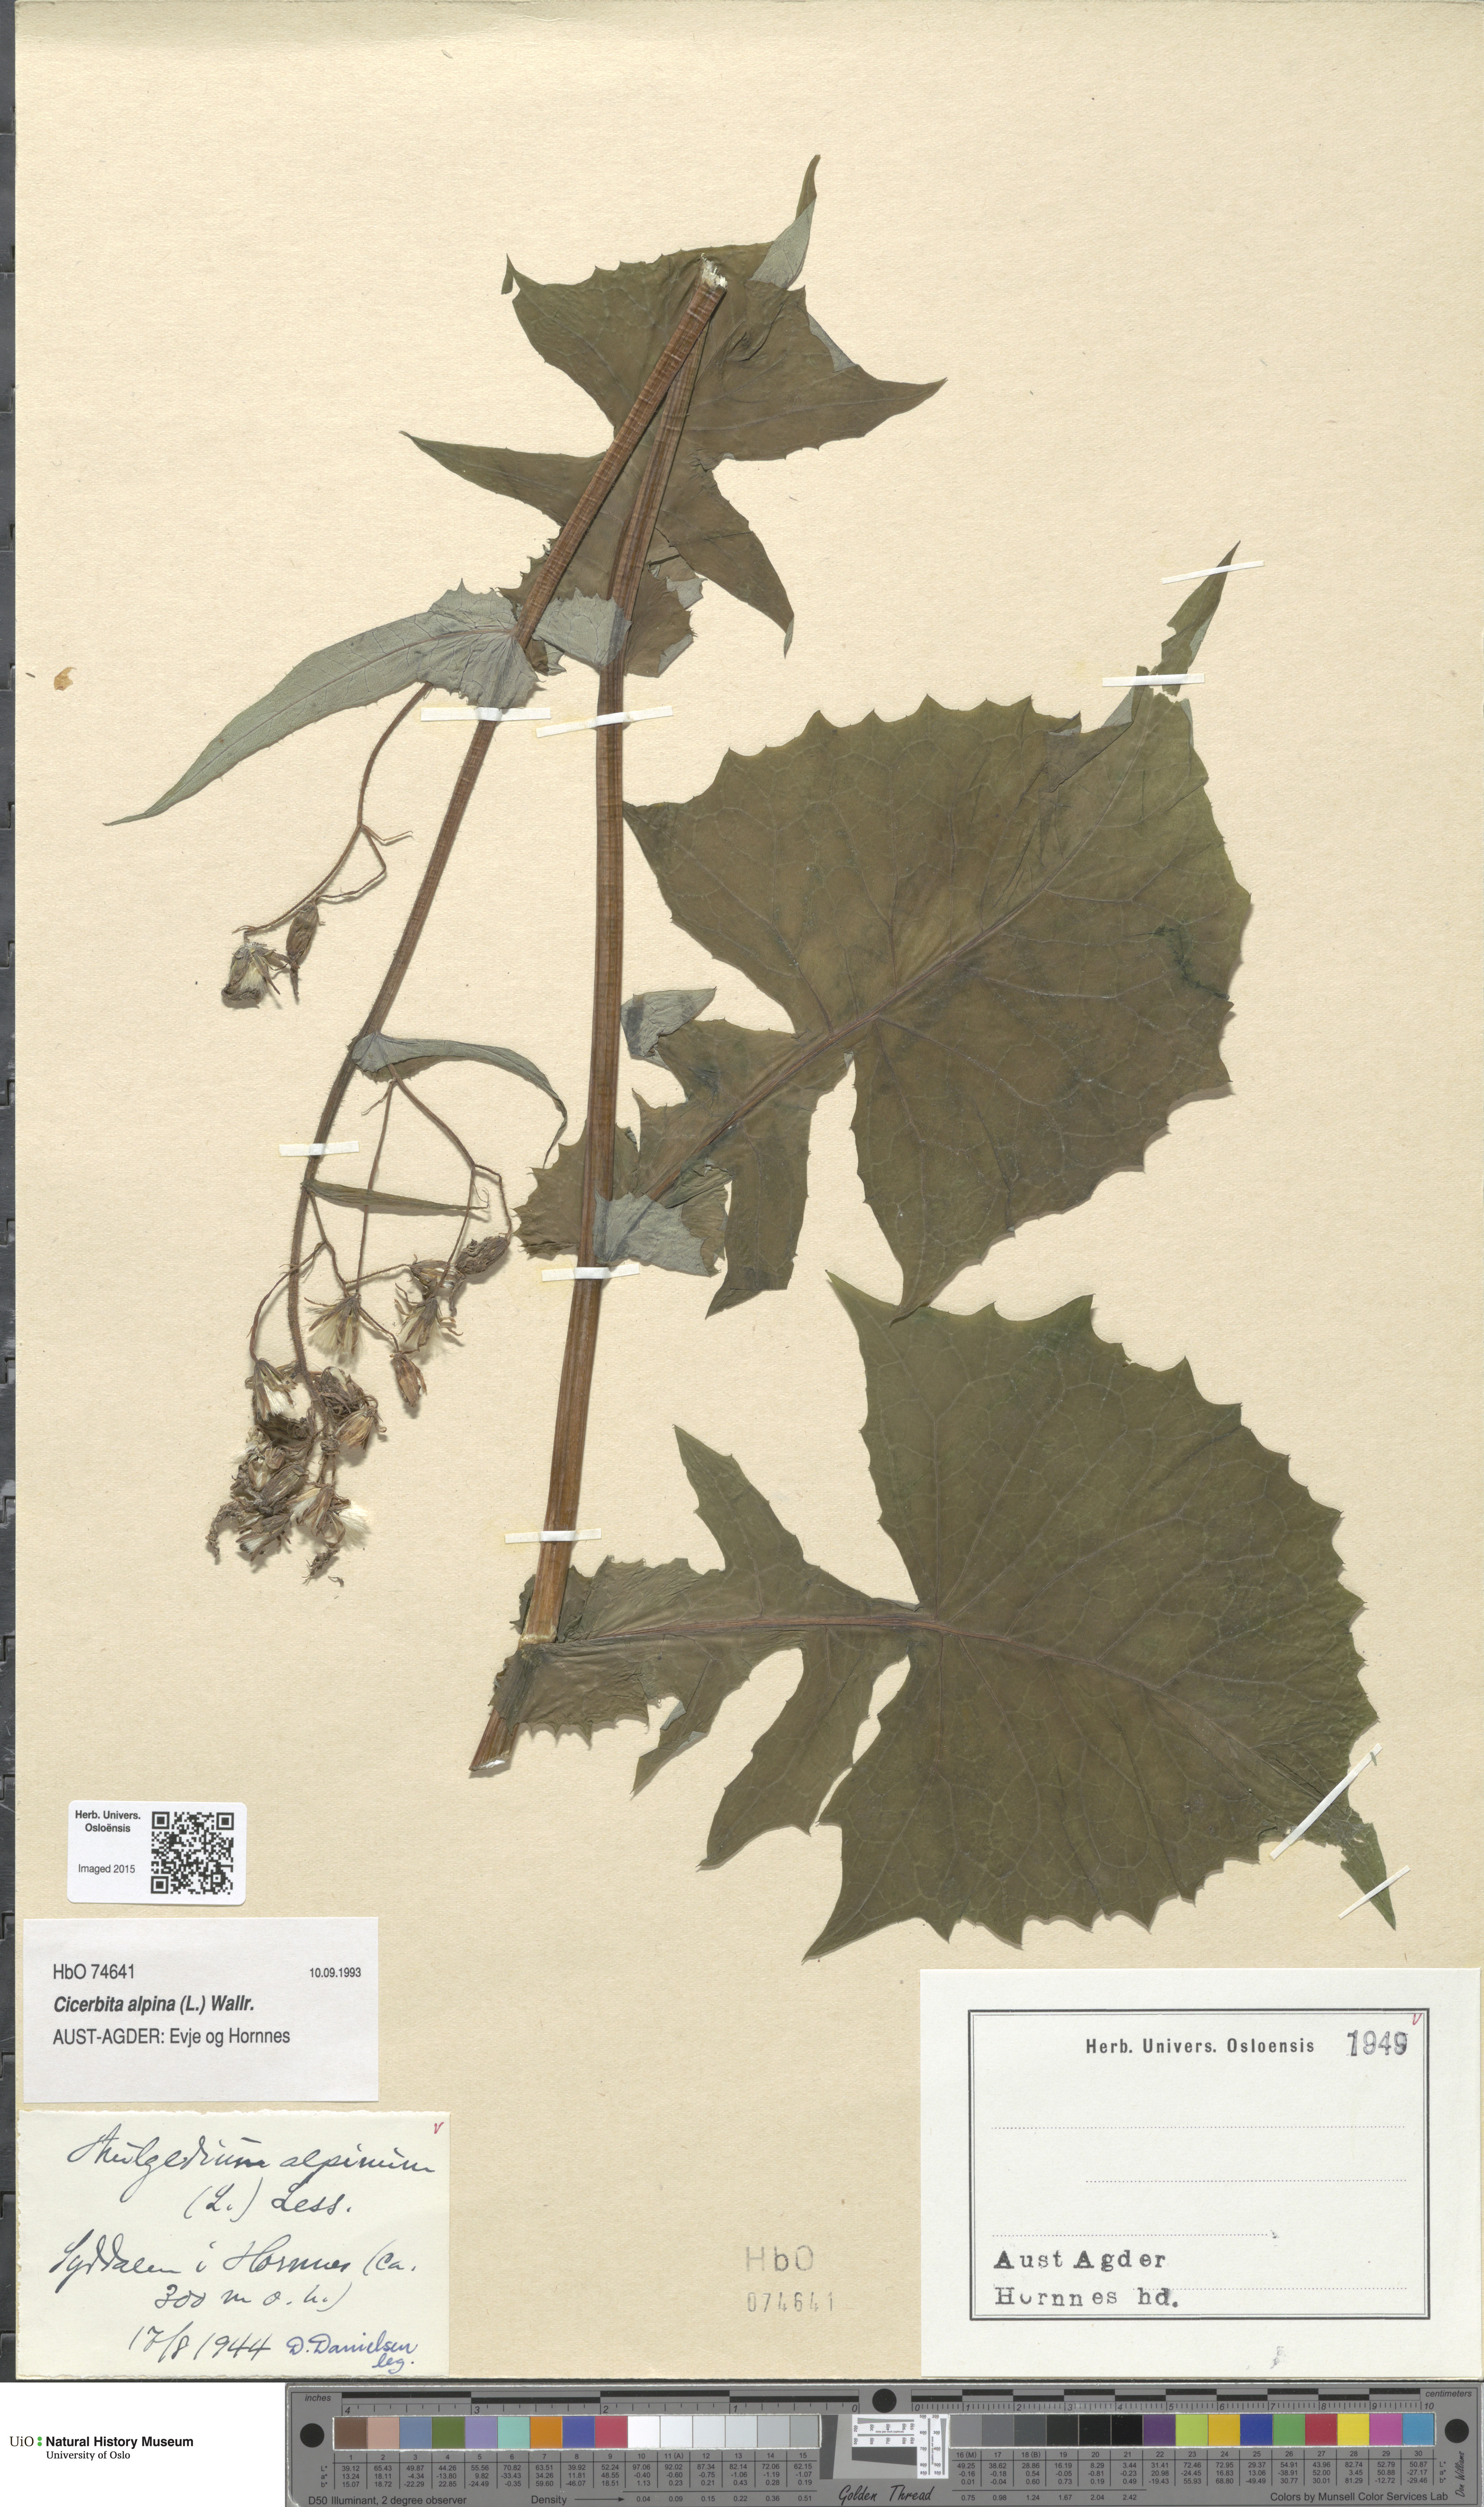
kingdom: Plantae
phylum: Tracheophyta
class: Magnoliopsida
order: Asterales
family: Asteraceae
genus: Cicerbita
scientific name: Cicerbita alpina
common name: Alpine blue-sow-thistle
